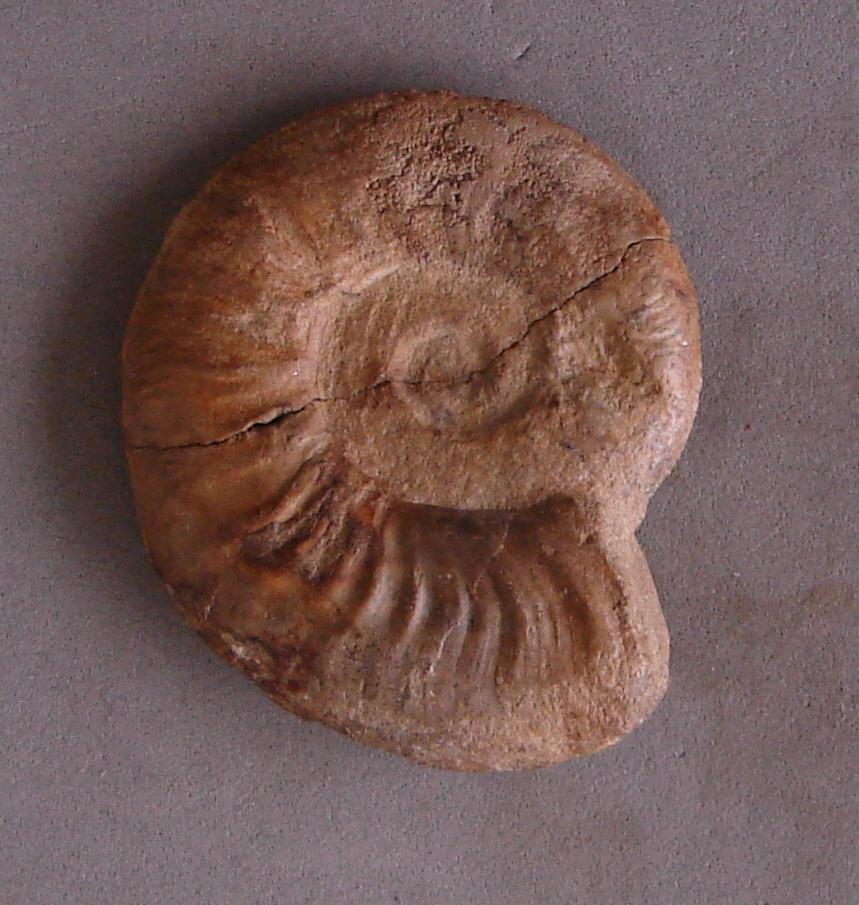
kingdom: Animalia
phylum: Mollusca
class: Cephalopoda
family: Hildoceratidae
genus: Pleydellia
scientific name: Pleydellia Cotteswoldia subcompta
